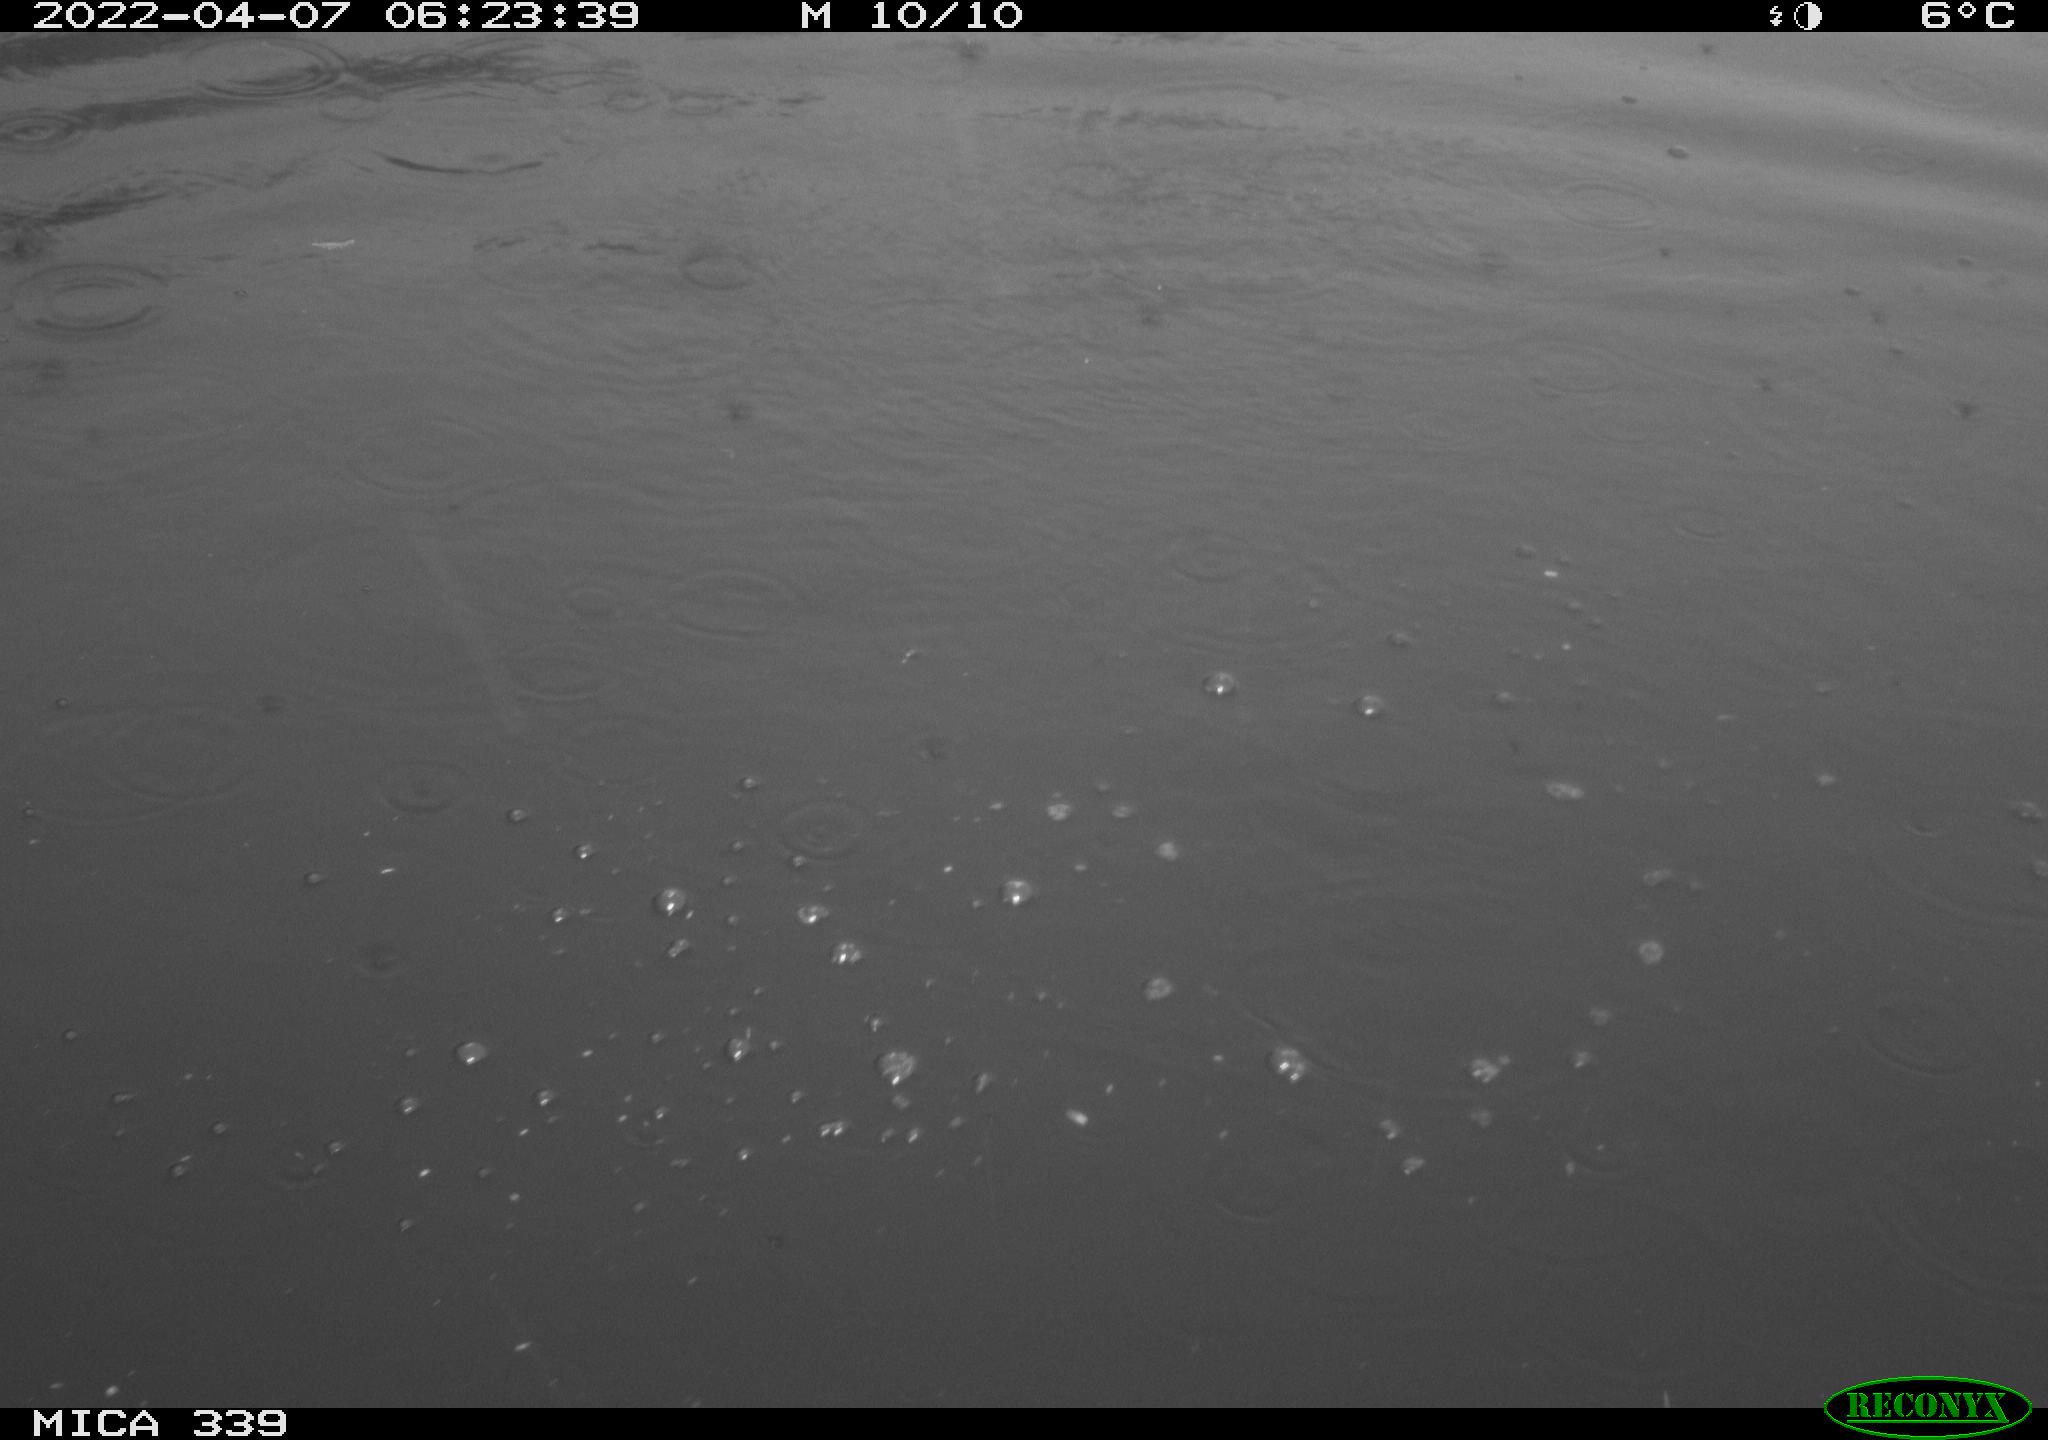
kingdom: Animalia
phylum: Chordata
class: Aves
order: Suliformes
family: Phalacrocoracidae
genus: Phalacrocorax
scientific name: Phalacrocorax carbo
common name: Great cormorant
